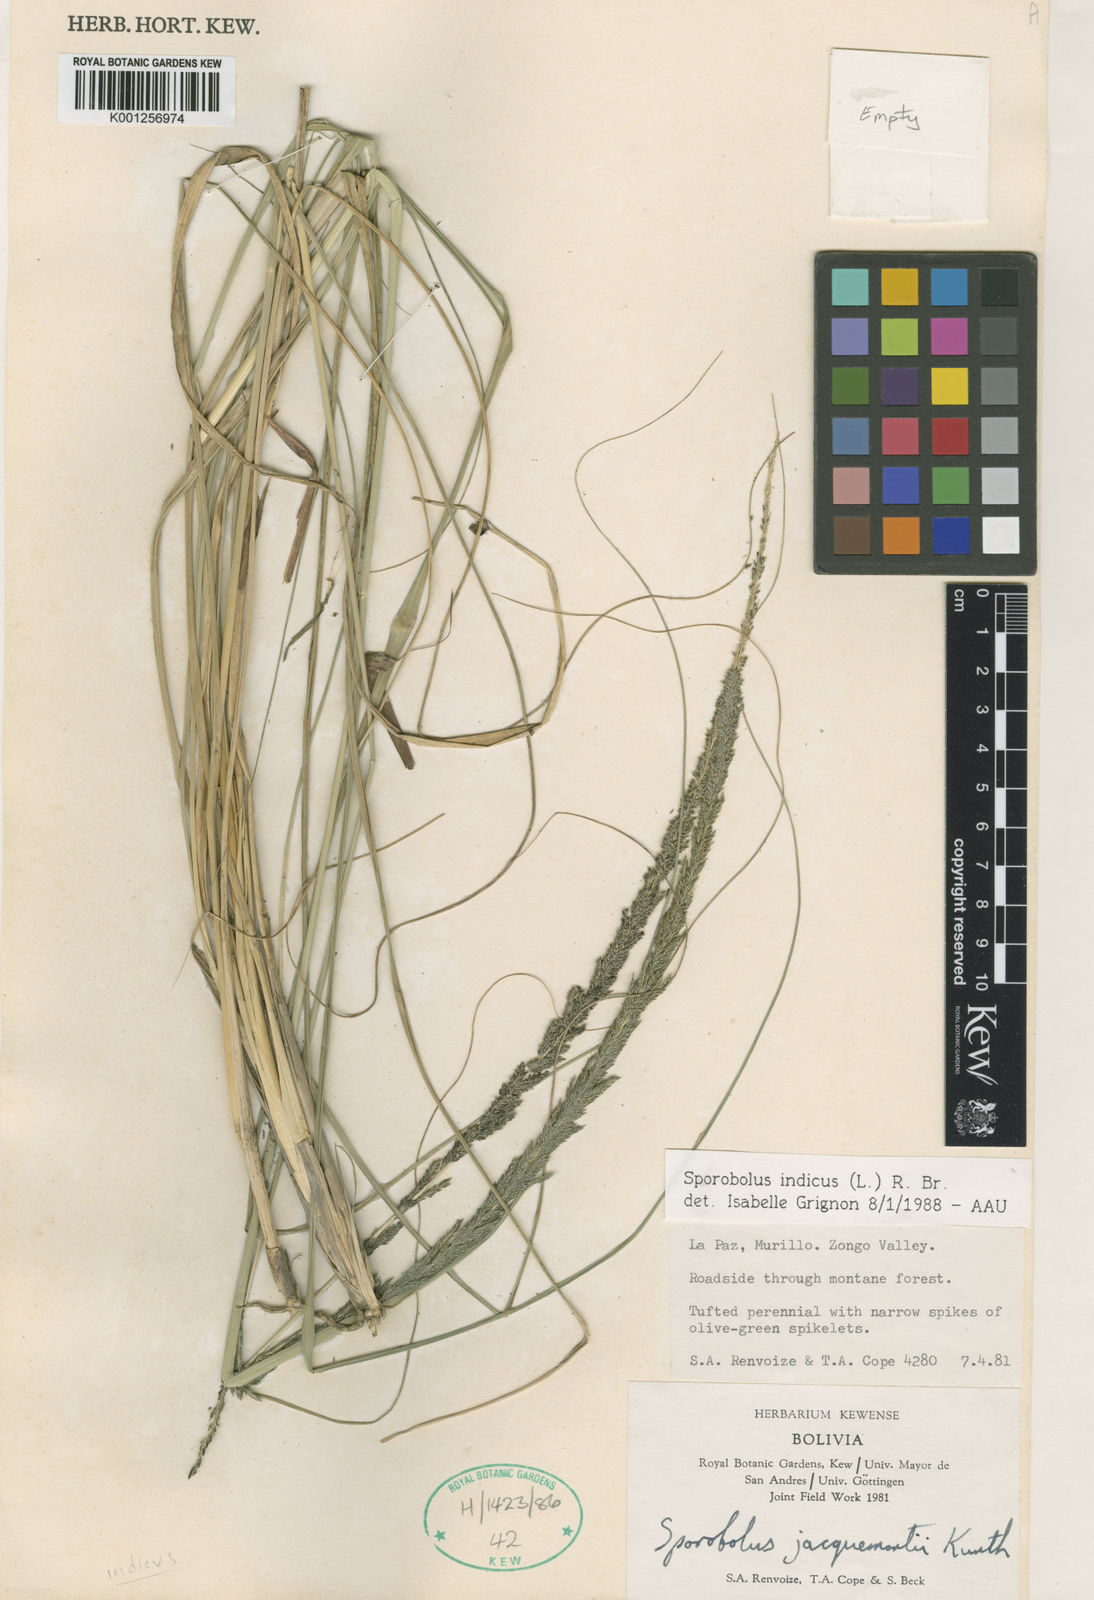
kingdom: Plantae
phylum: Tracheophyta
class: Liliopsida
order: Poales
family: Poaceae
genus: Sporobolus
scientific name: Sporobolus indicus
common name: Smut grass
